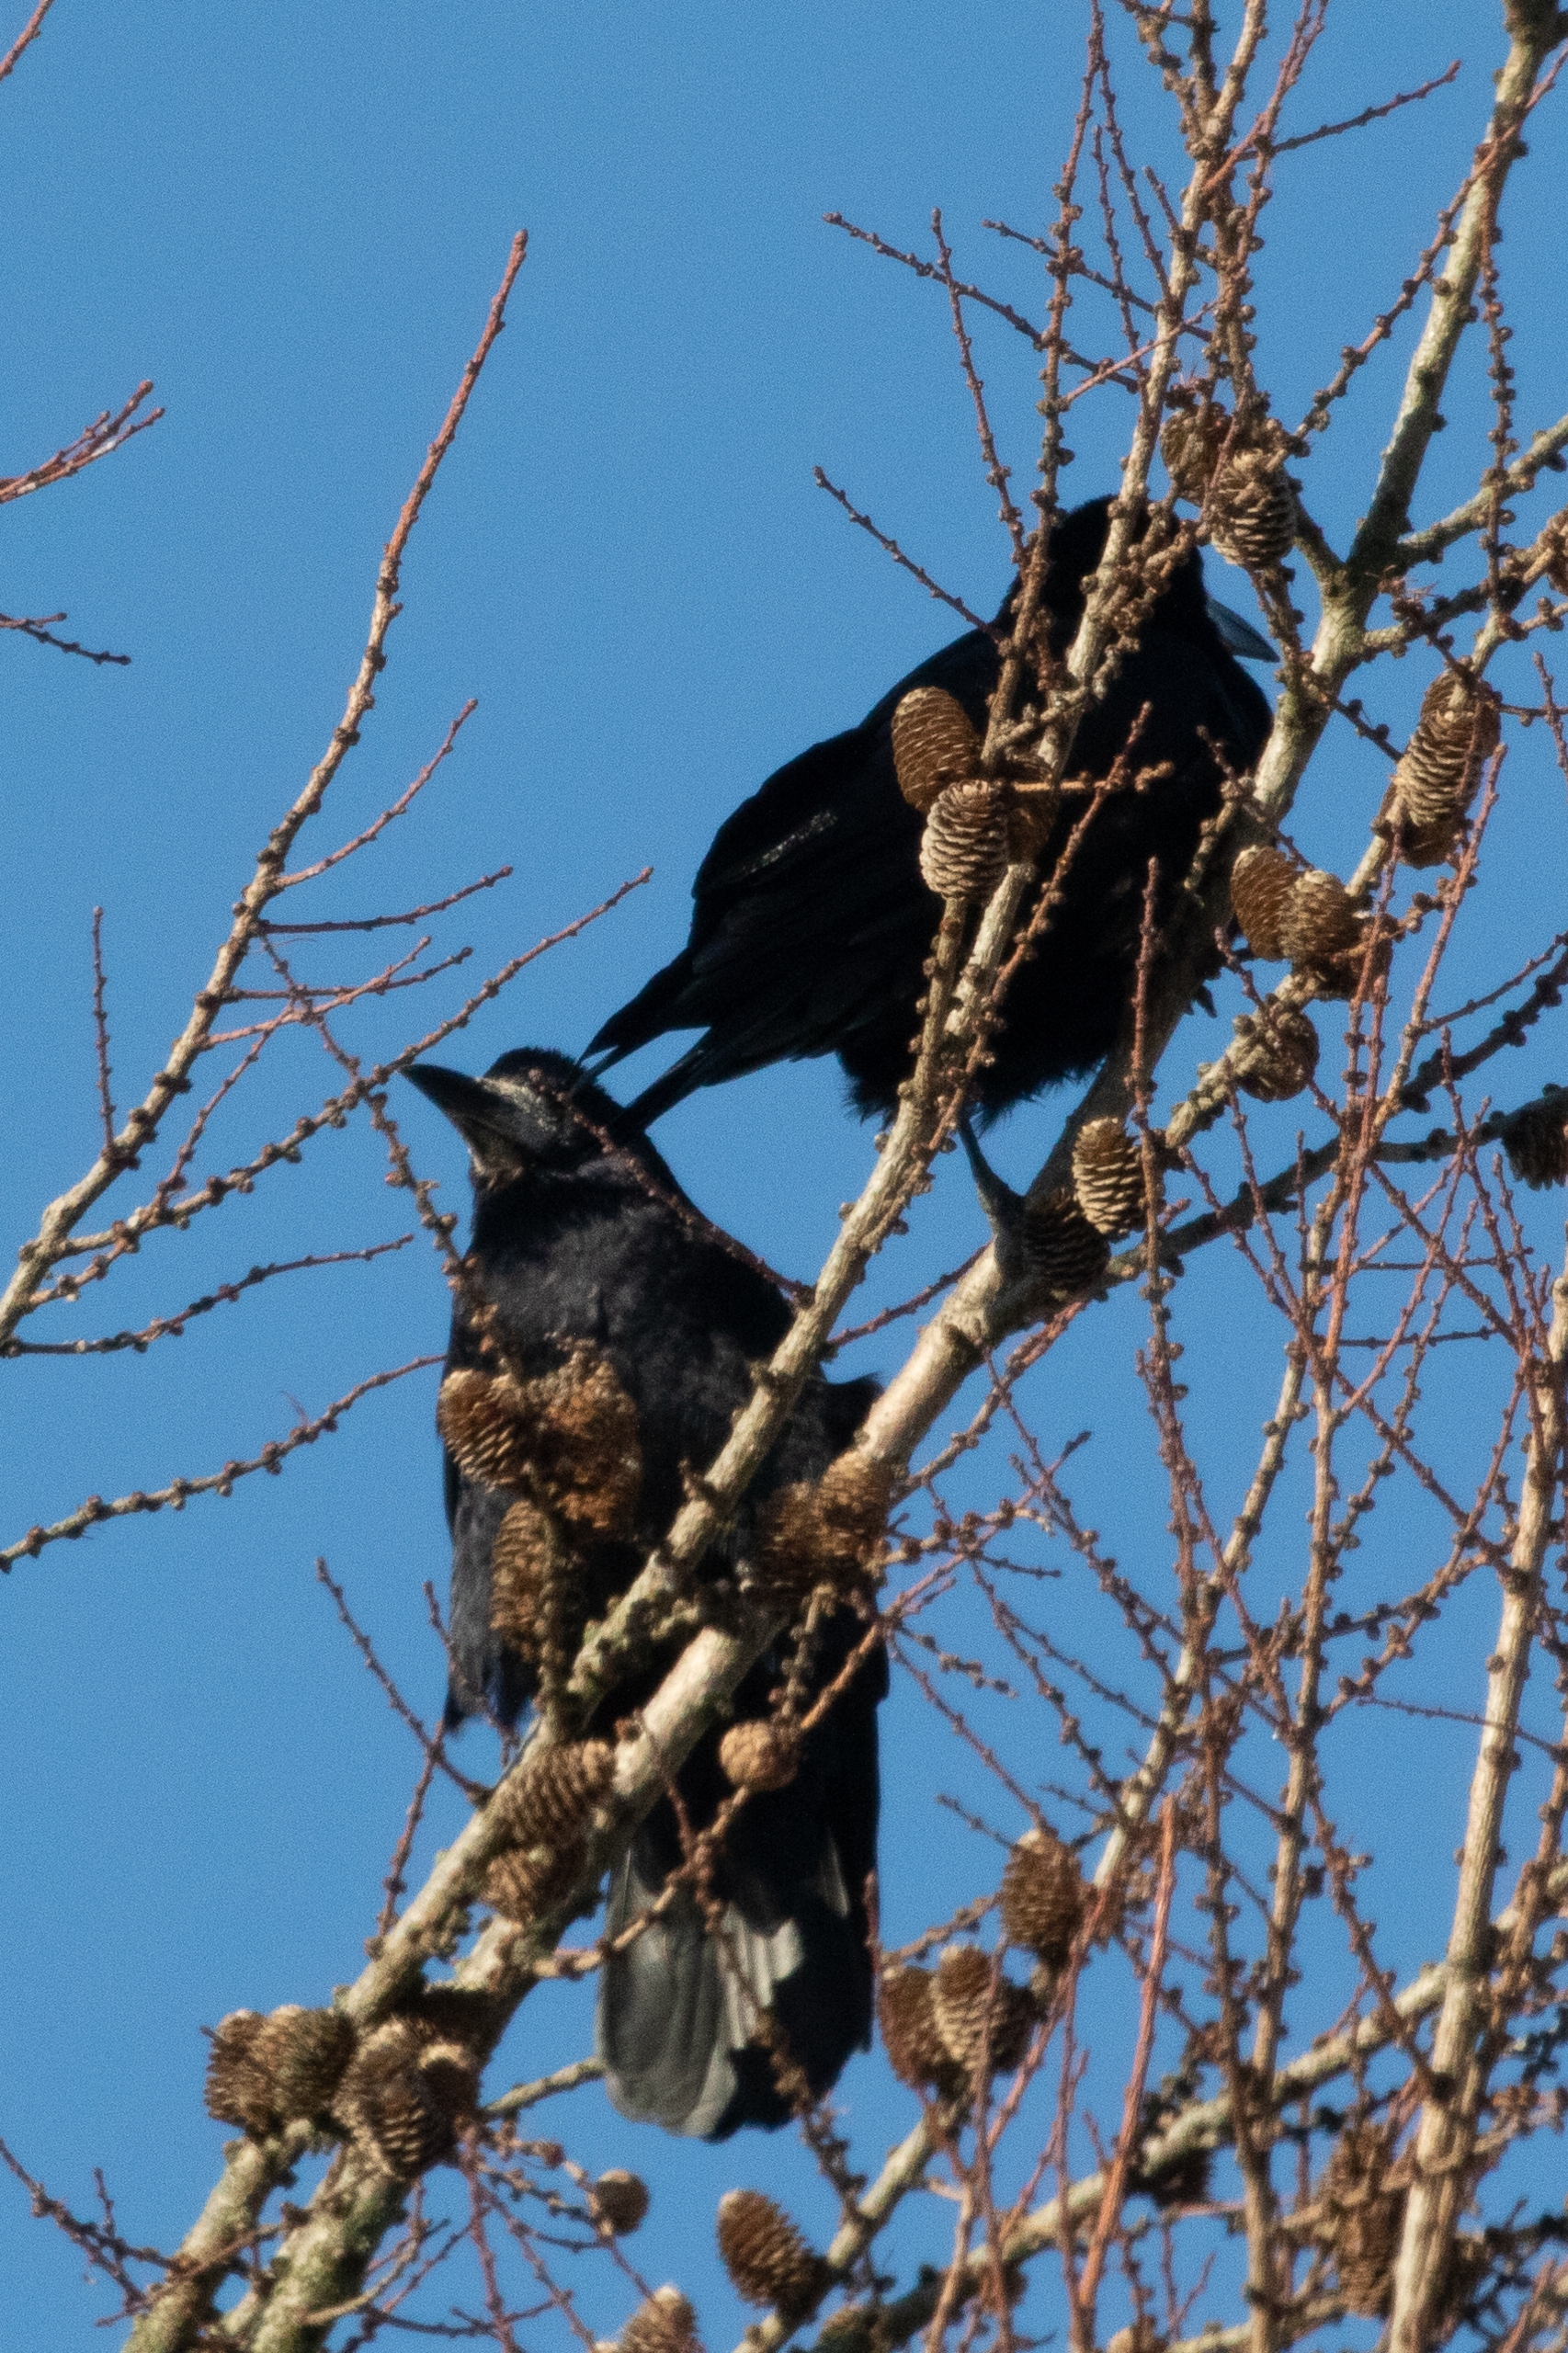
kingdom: Animalia
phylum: Chordata
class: Aves
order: Passeriformes
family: Corvidae
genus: Corvus
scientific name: Corvus frugilegus
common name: Råge
